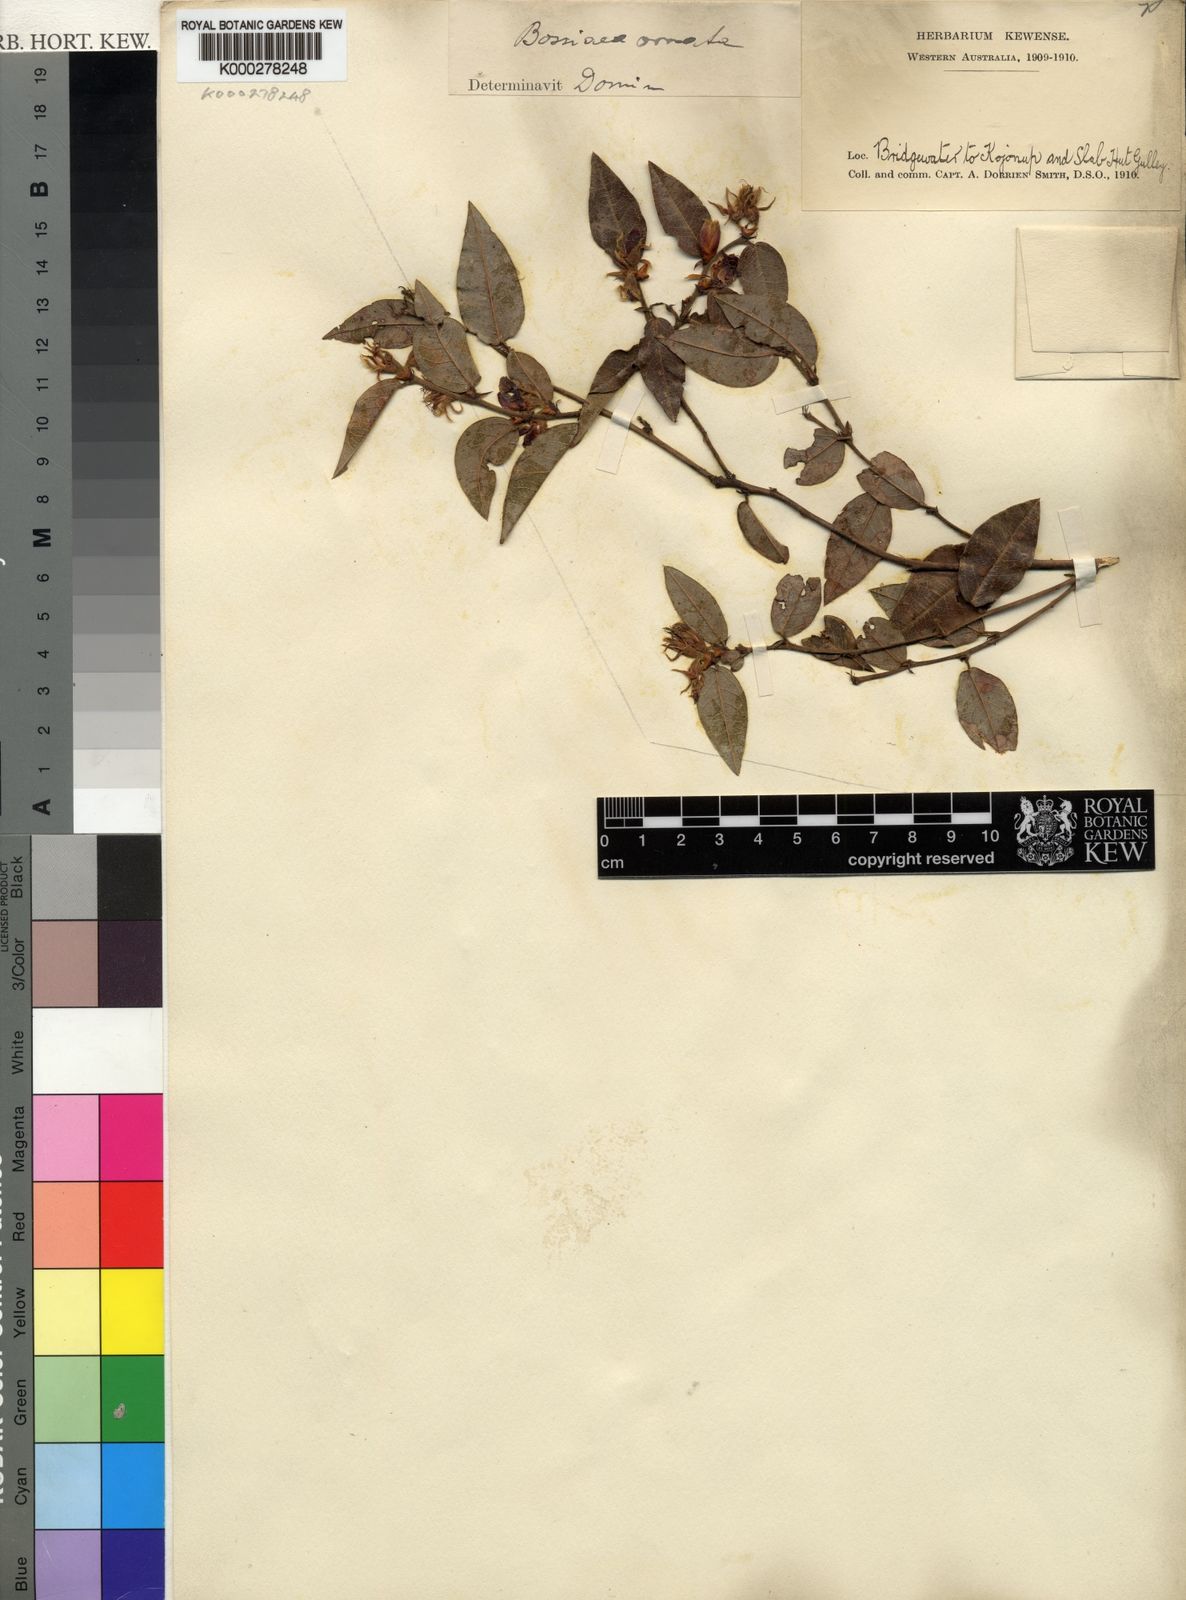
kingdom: Plantae
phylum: Tracheophyta
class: Magnoliopsida
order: Fabales
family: Fabaceae
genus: Bossiaea
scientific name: Bossiaea ornata
